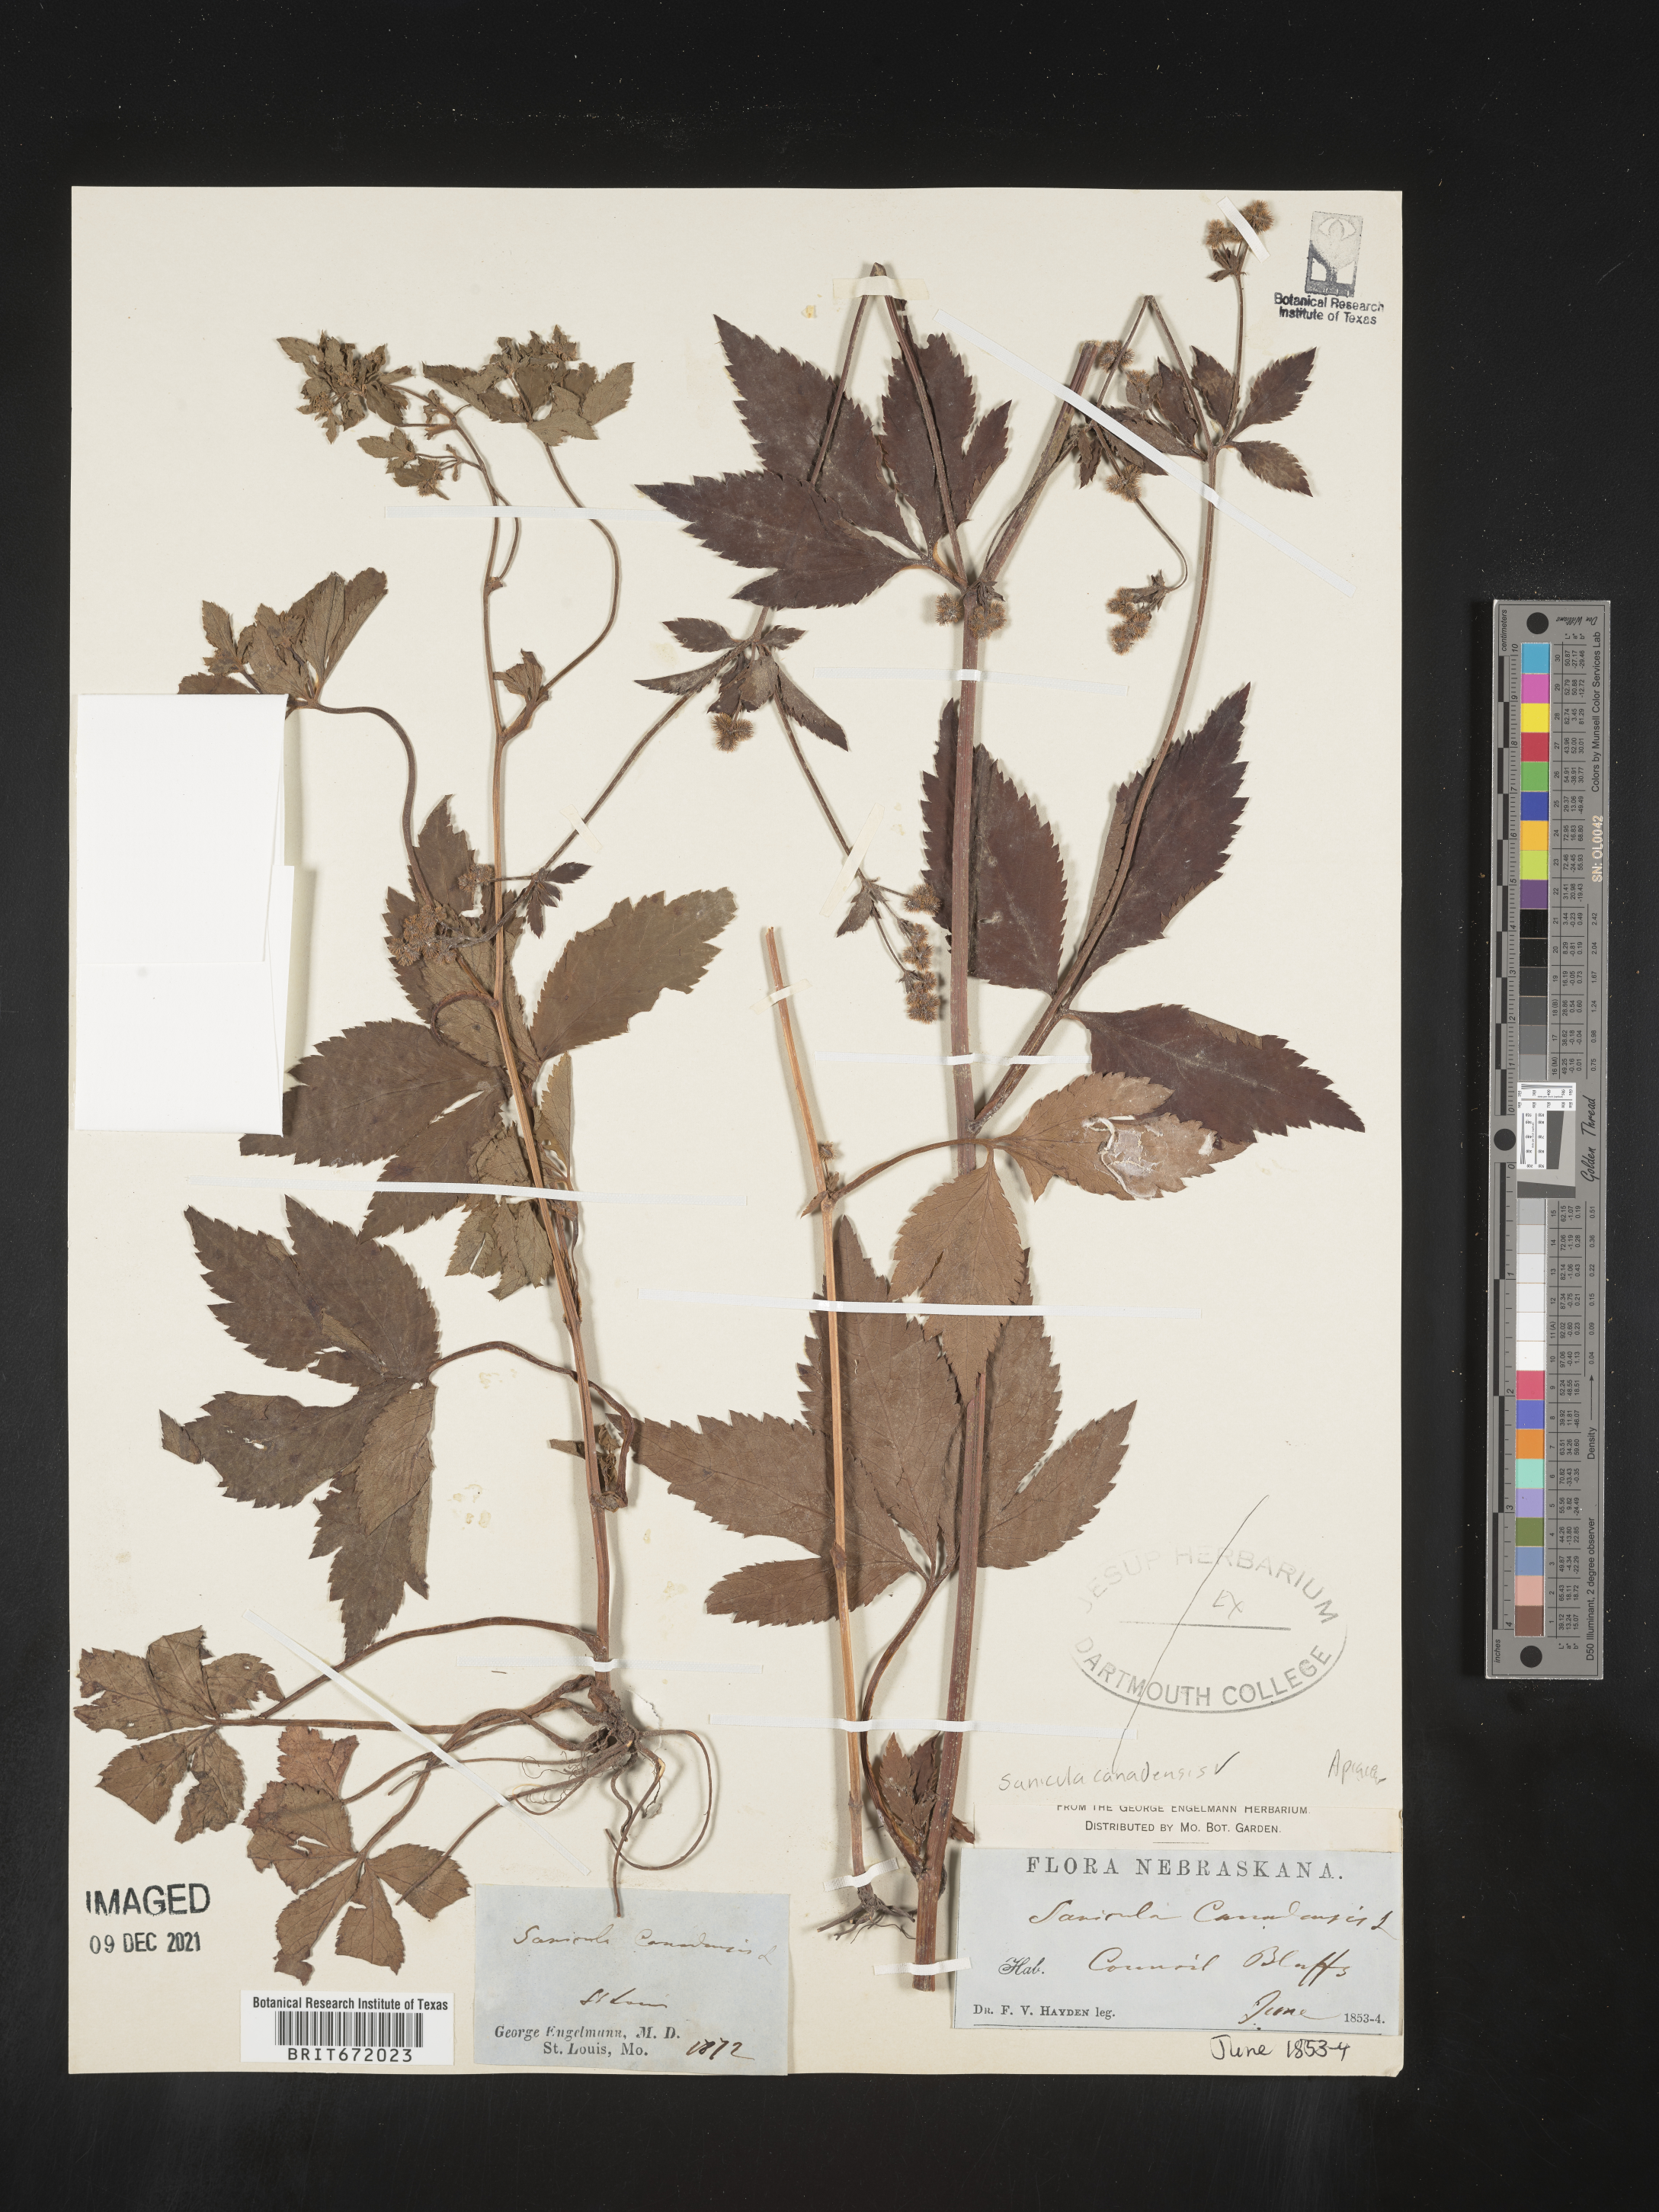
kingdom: Plantae
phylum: Tracheophyta
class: Magnoliopsida
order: Apiales
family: Apiaceae
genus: Sanicula
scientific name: Sanicula canadensis
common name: Canada sanicle
